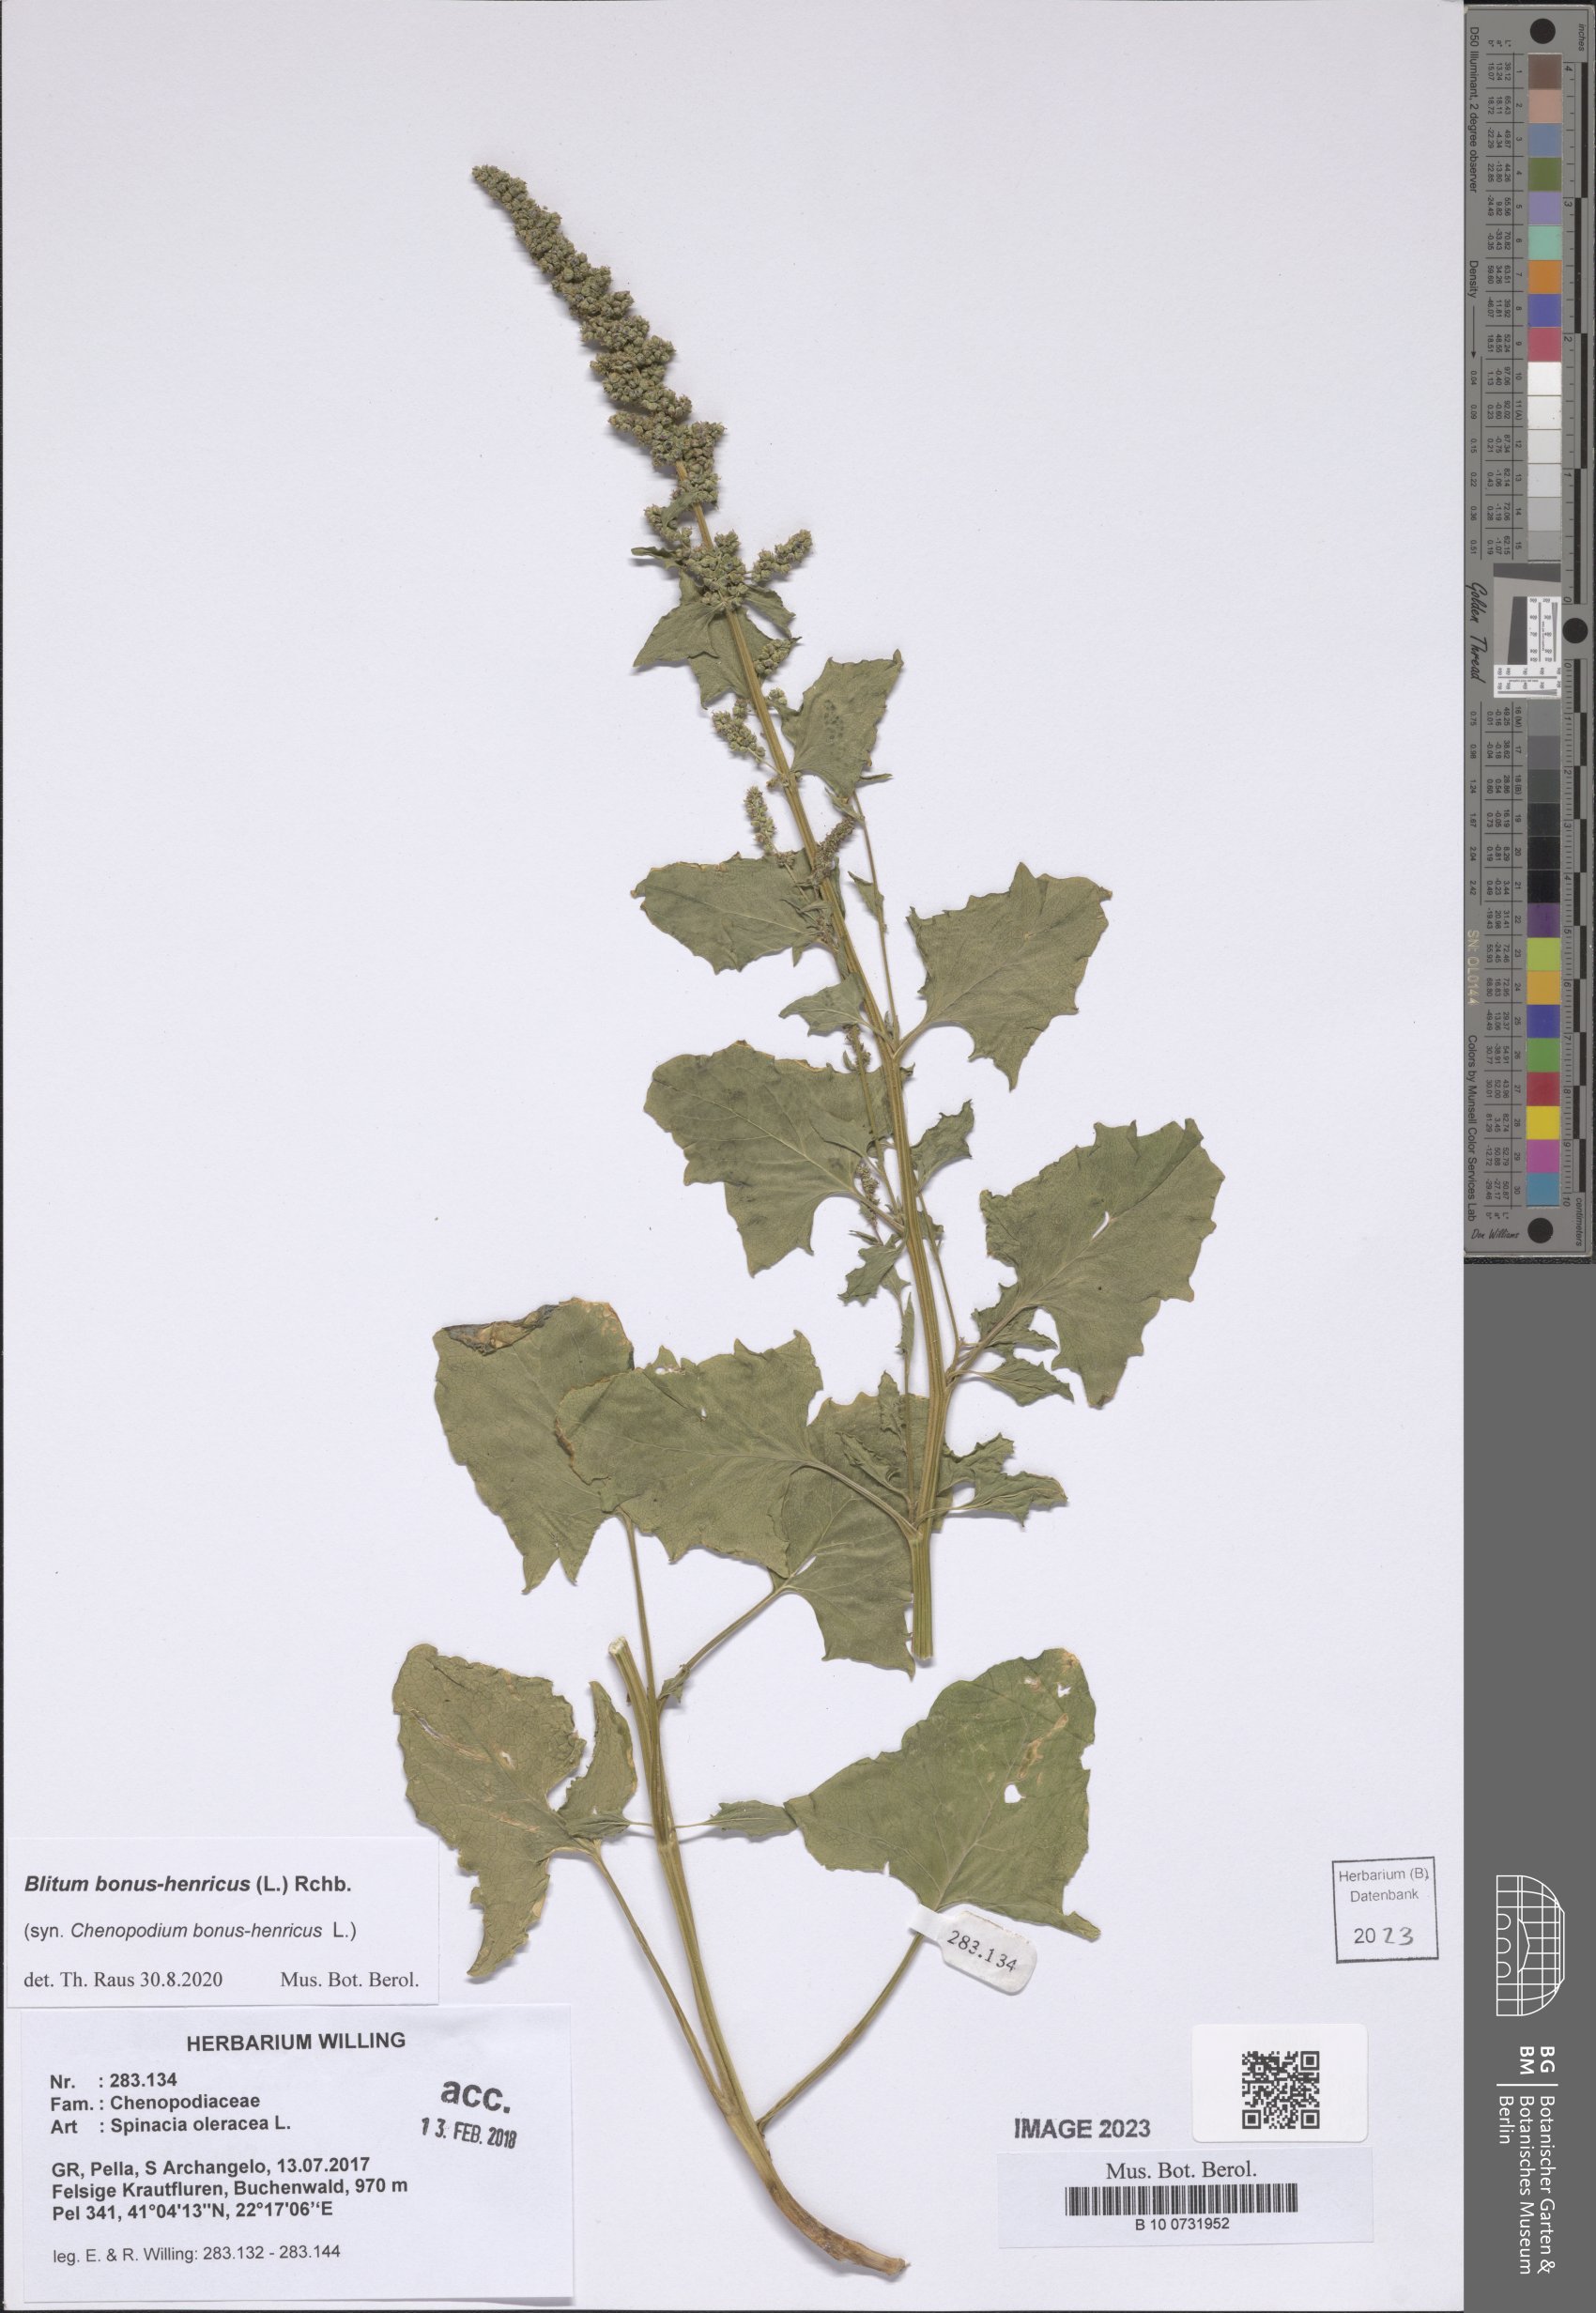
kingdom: Plantae
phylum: Tracheophyta
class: Magnoliopsida
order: Caryophyllales
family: Amaranthaceae
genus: Blitum
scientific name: Blitum bonus-henricus
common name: Good king henry
